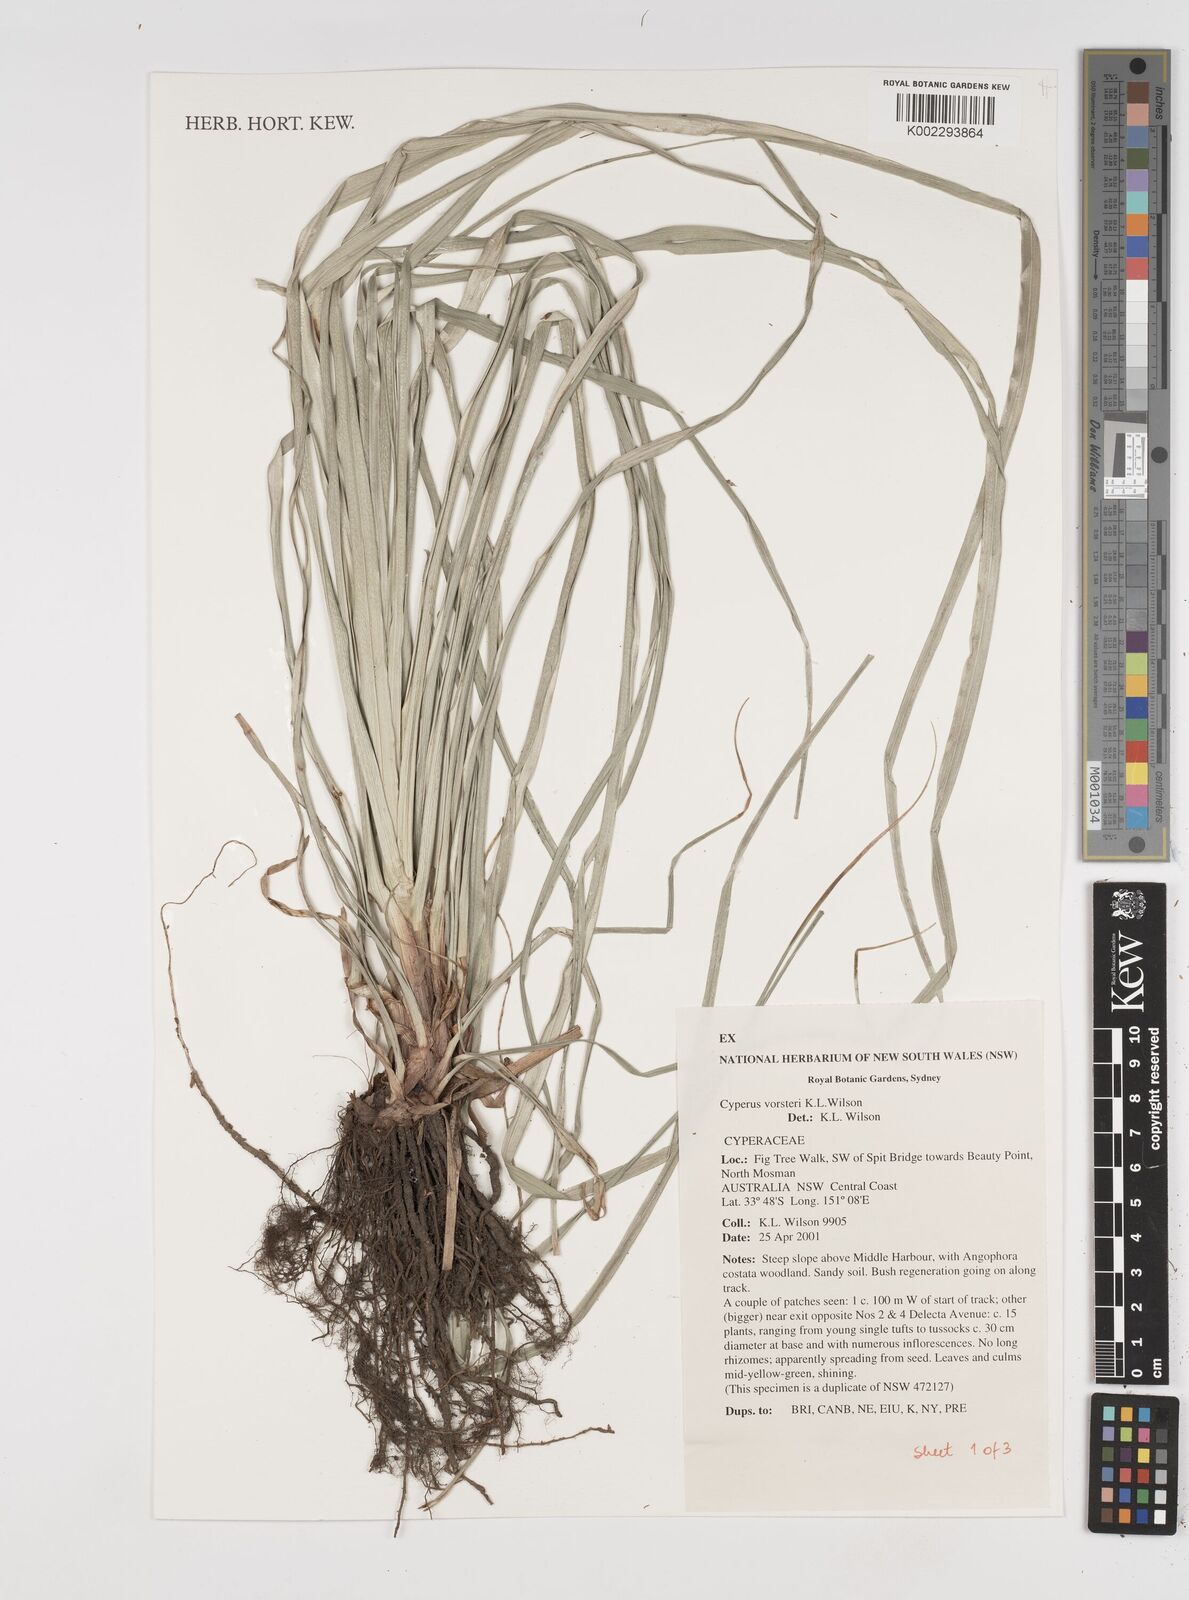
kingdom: Plantae
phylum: Tracheophyta
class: Liliopsida
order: Poales
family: Cyperaceae
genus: Cyperus
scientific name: Cyperus vorsteri
